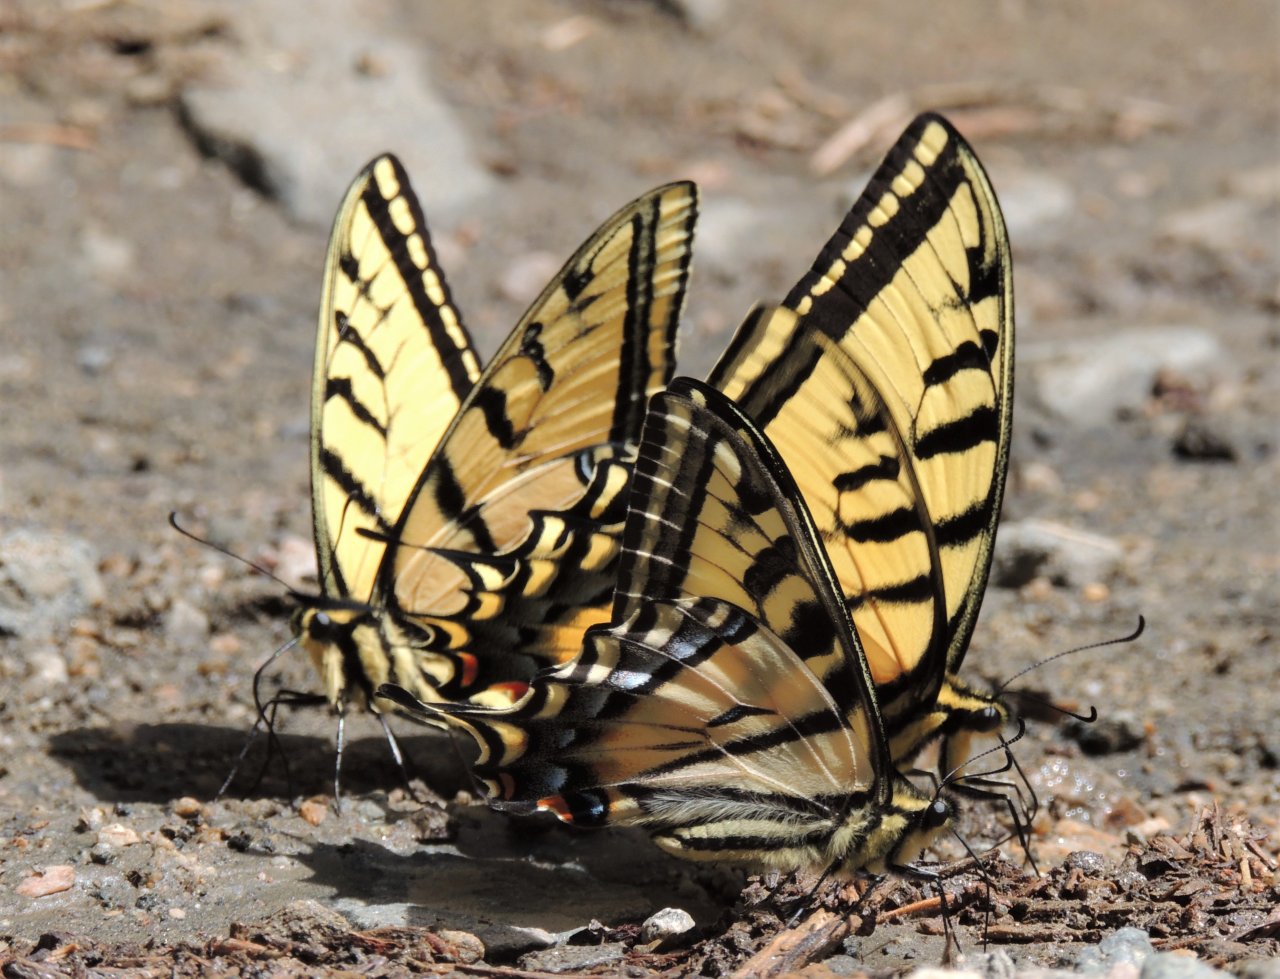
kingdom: Animalia
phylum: Arthropoda
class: Insecta
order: Lepidoptera
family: Papilionidae
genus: Papilio
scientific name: Papilio multicaudata
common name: Two-tailed Swallowtail
